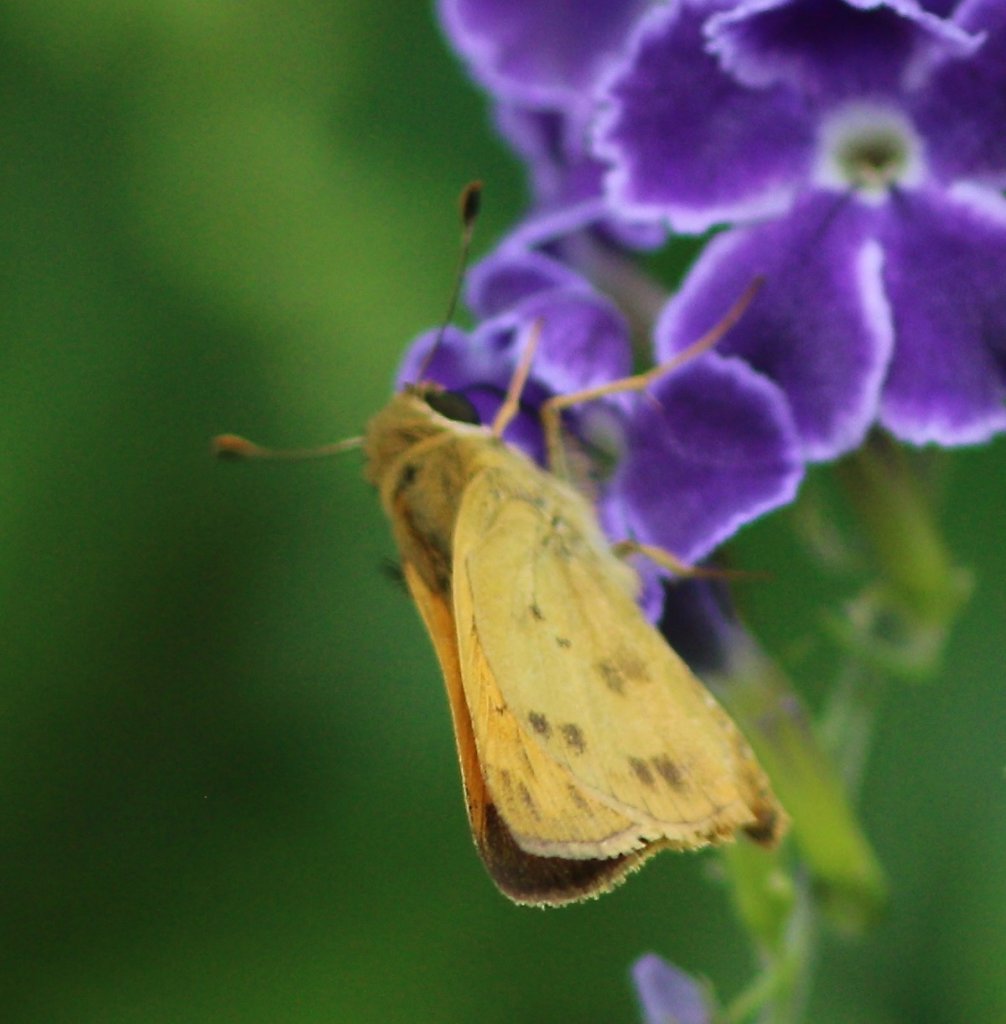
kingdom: Animalia
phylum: Arthropoda
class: Insecta
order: Lepidoptera
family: Hesperiidae
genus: Polites
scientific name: Polites vibex
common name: Whirlabout
